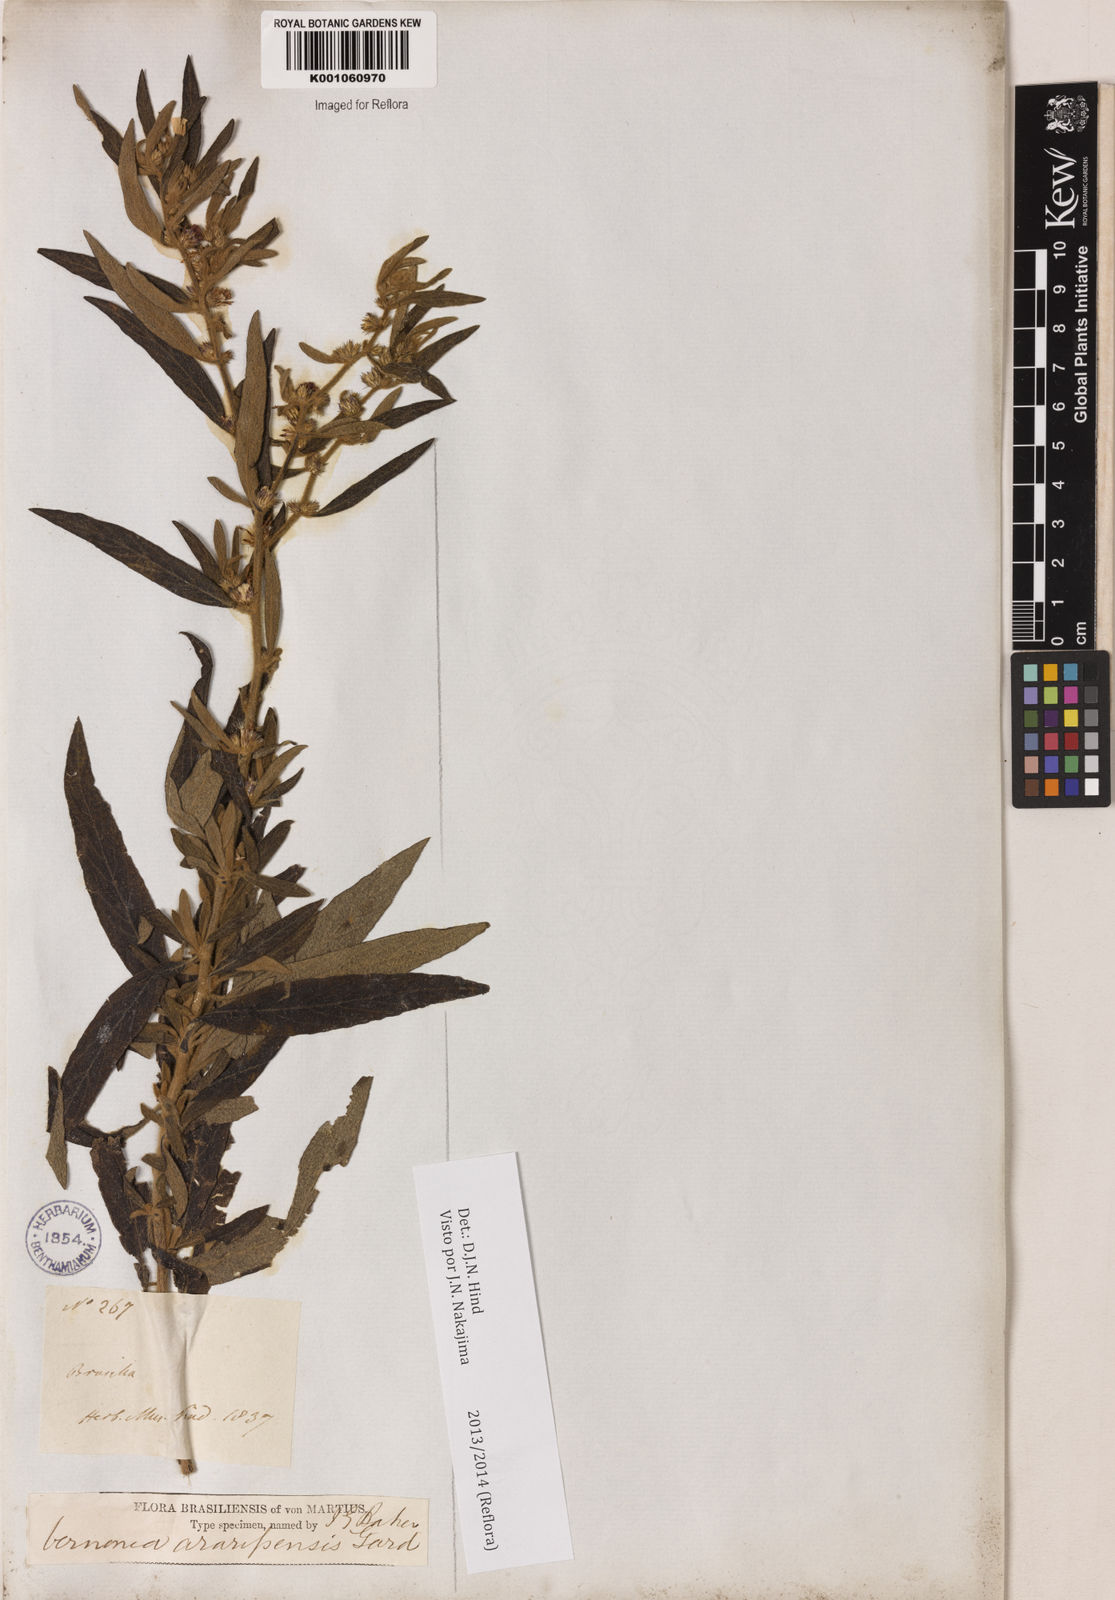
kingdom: Plantae
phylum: Tracheophyta
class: Magnoliopsida
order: Asterales
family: Asteraceae
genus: Lepidaploa
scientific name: Lepidaploa araripensis
